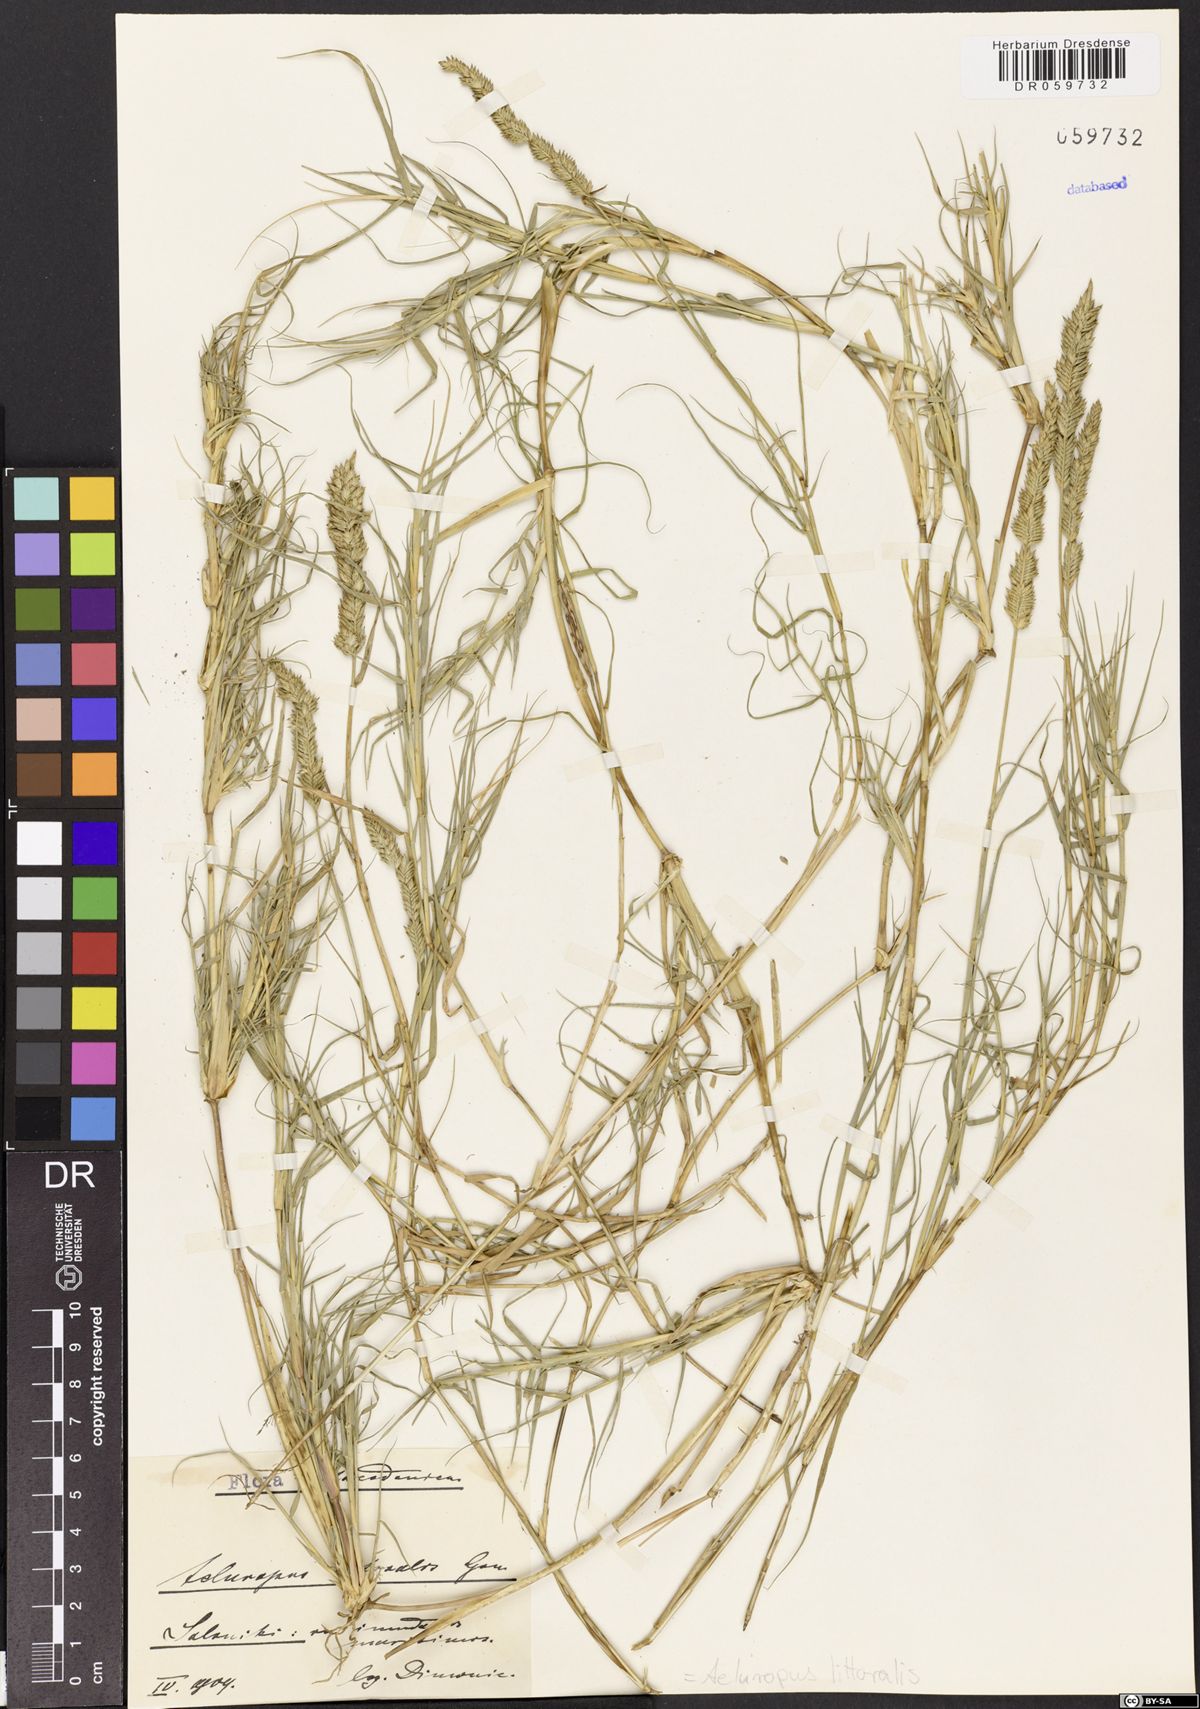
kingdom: Plantae
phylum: Tracheophyta
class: Liliopsida
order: Poales
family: Poaceae
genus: Aeluropus
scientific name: Aeluropus littoralis
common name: Indian walnut
